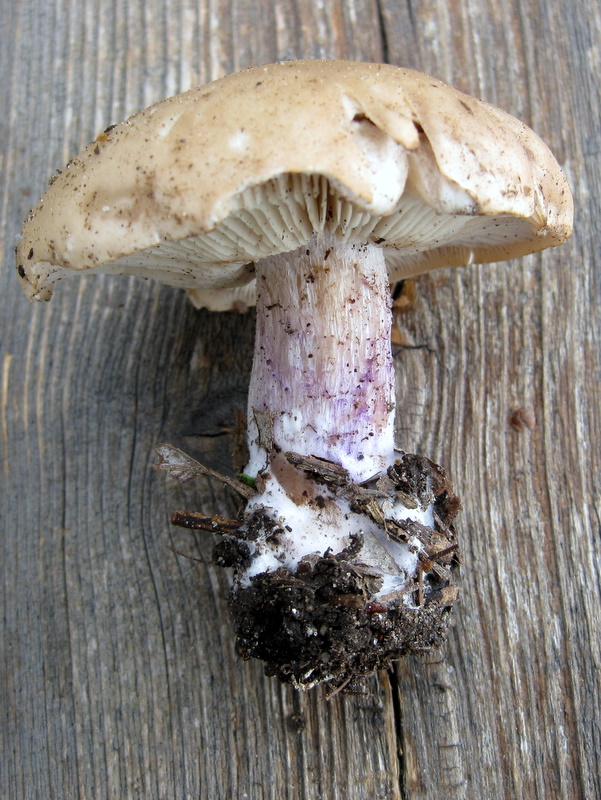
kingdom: Fungi
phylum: Basidiomycota
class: Agaricomycetes
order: Agaricales
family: Tricholomataceae
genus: Lepista
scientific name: Lepista personata
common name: bleg hekseringshat
